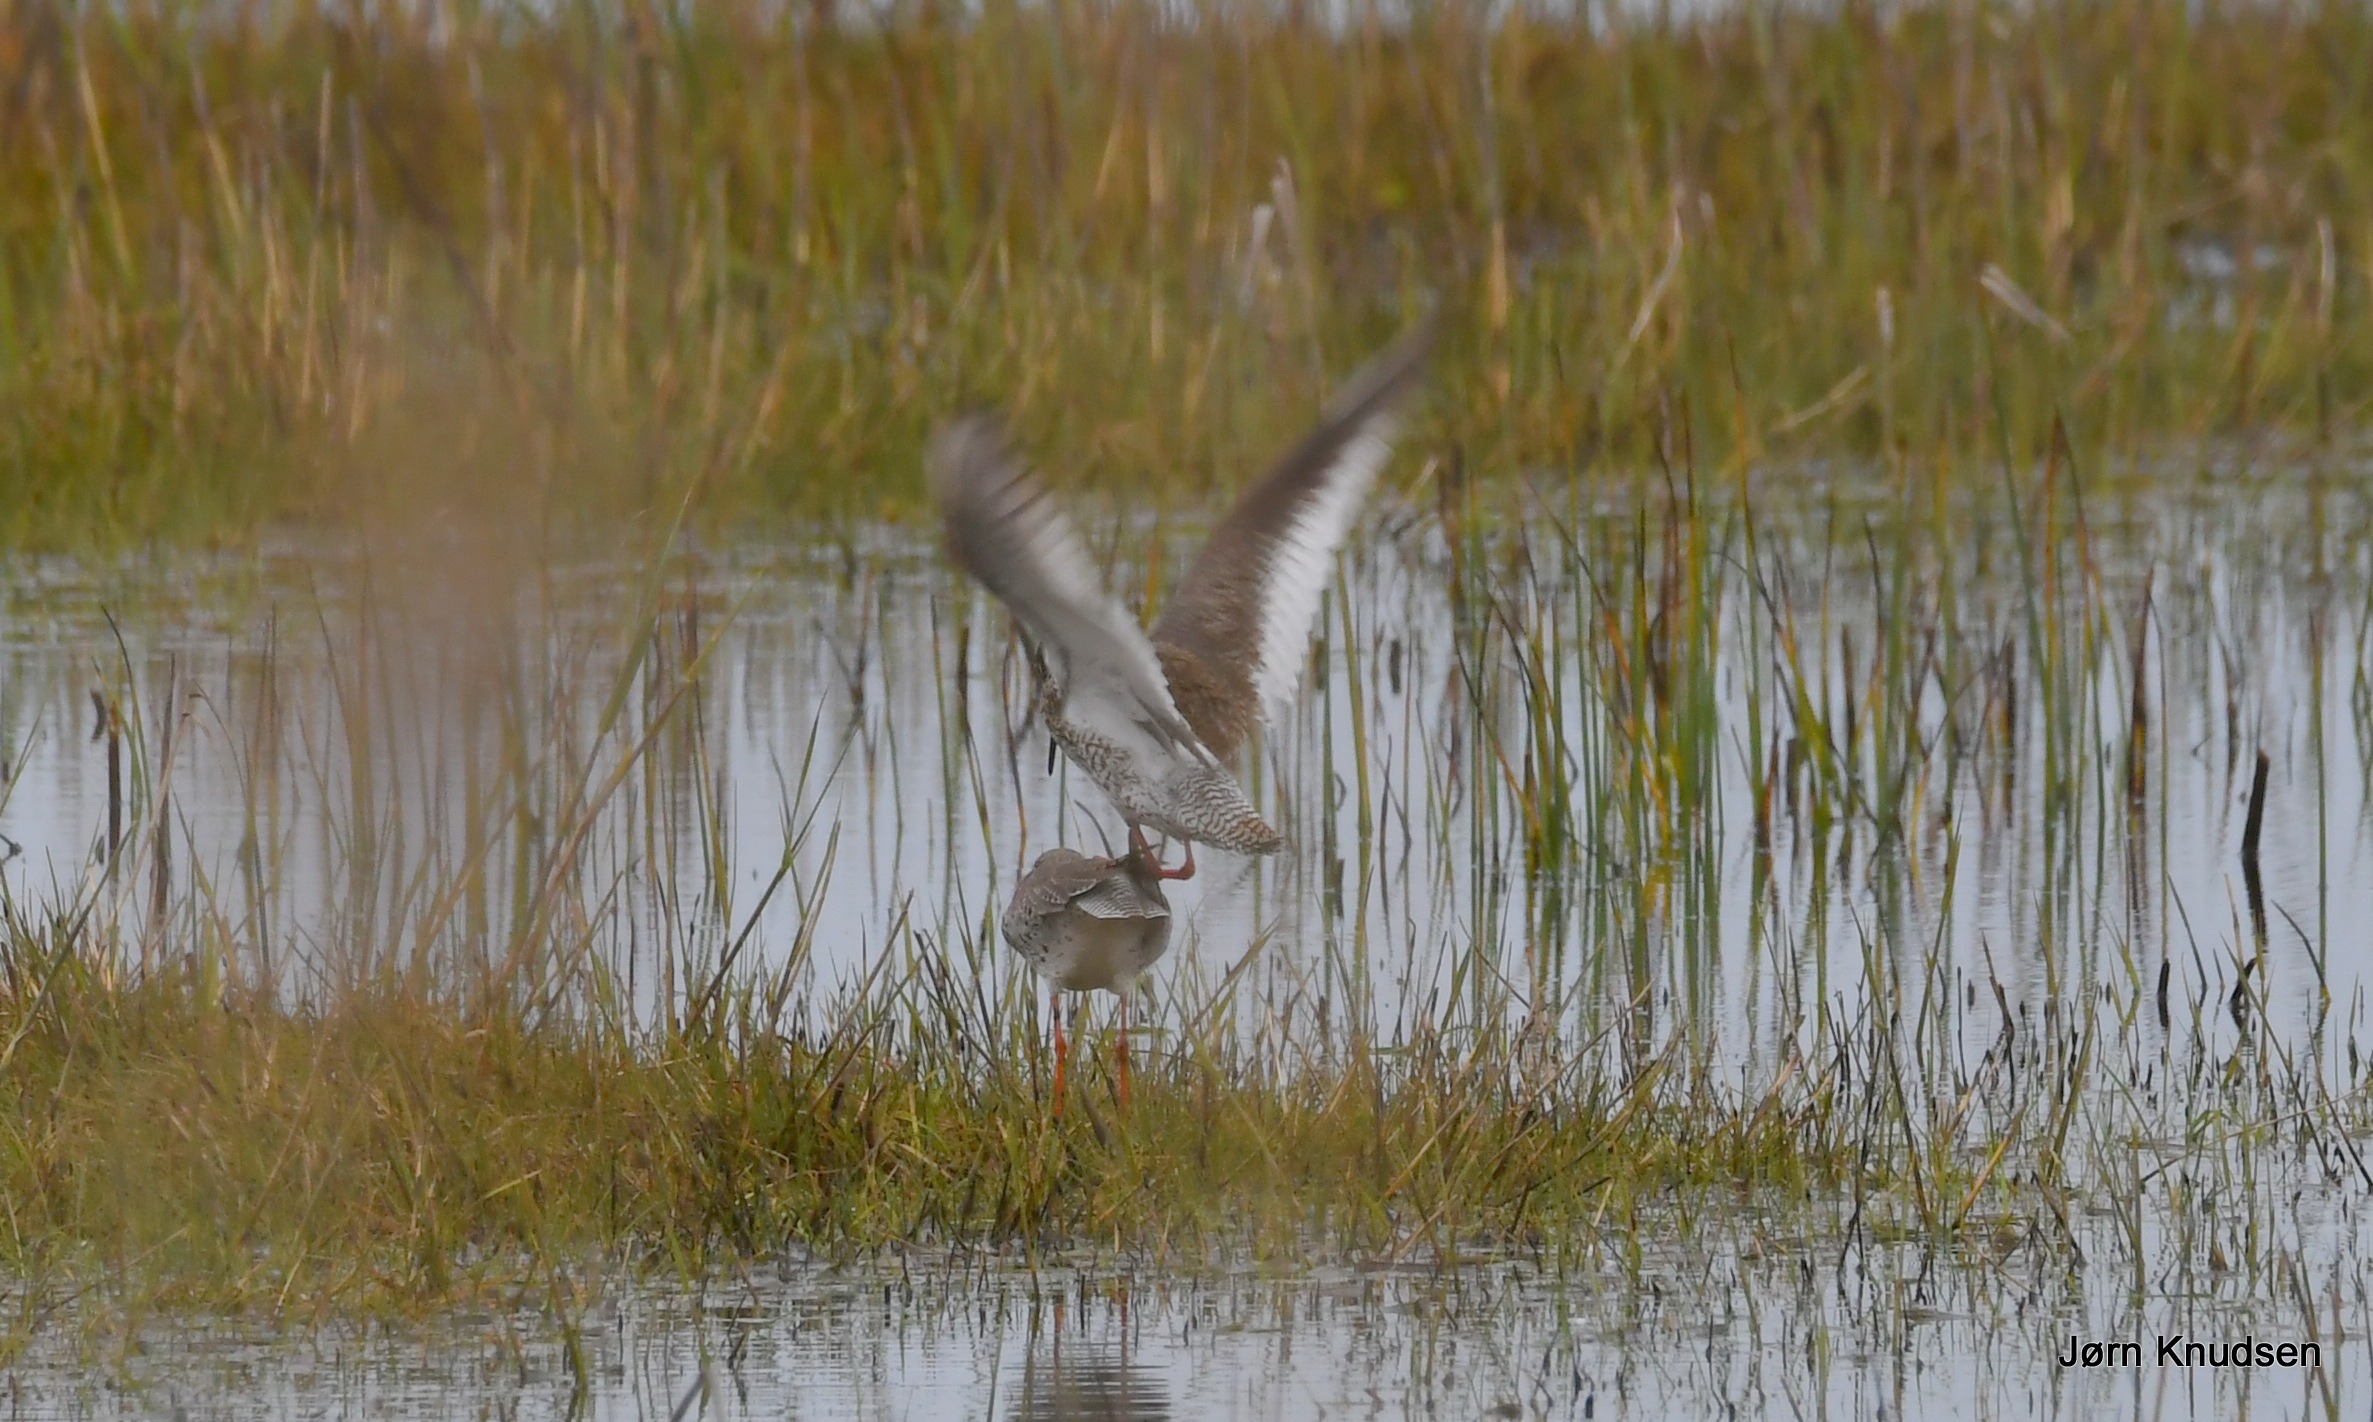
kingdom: Animalia
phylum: Chordata
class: Aves
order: Charadriiformes
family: Scolopacidae
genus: Tringa
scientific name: Tringa totanus
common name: Rødben
